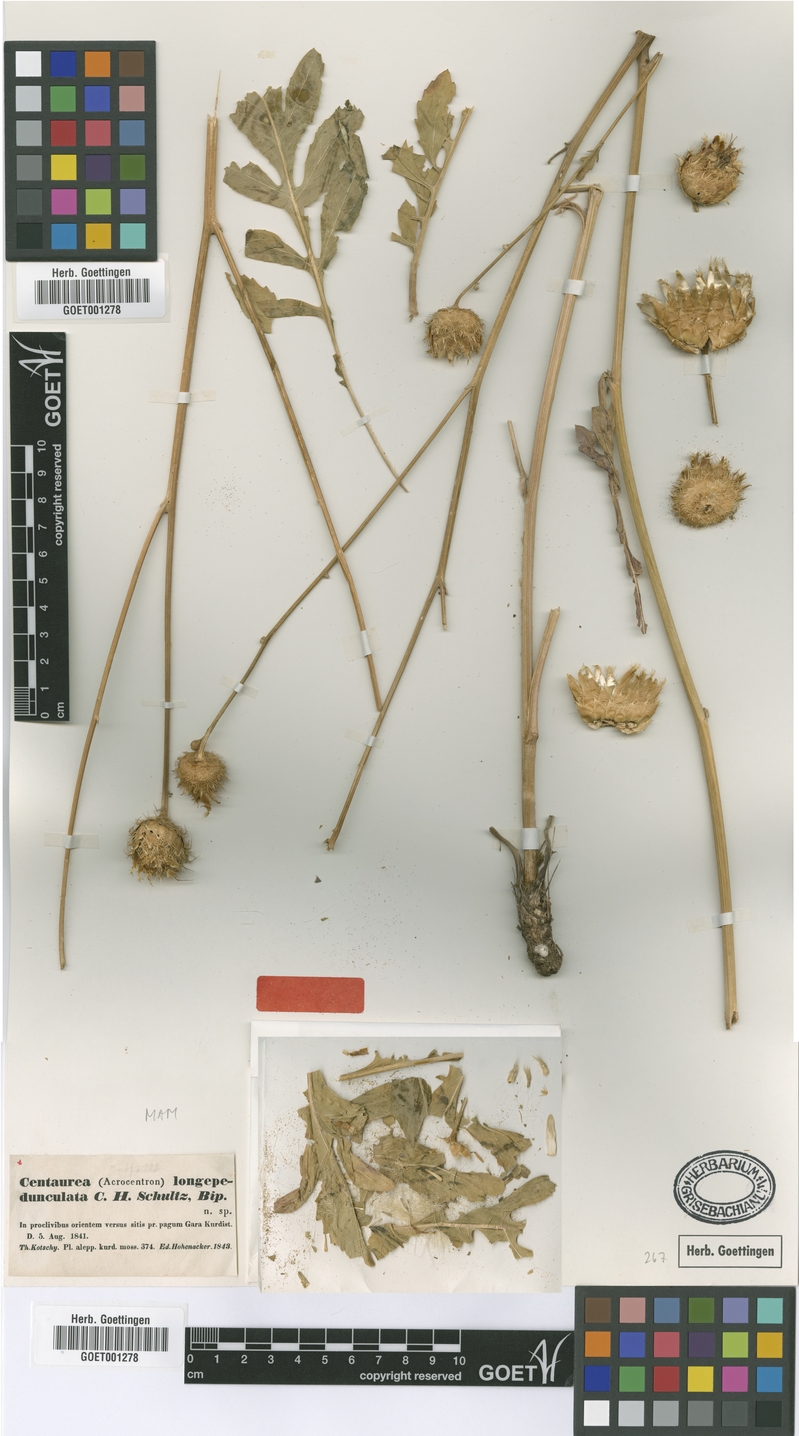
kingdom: Plantae
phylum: Tracheophyta
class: Magnoliopsida
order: Asterales
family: Asteraceae
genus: Centaurea
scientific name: Centaurea longepedunculata
